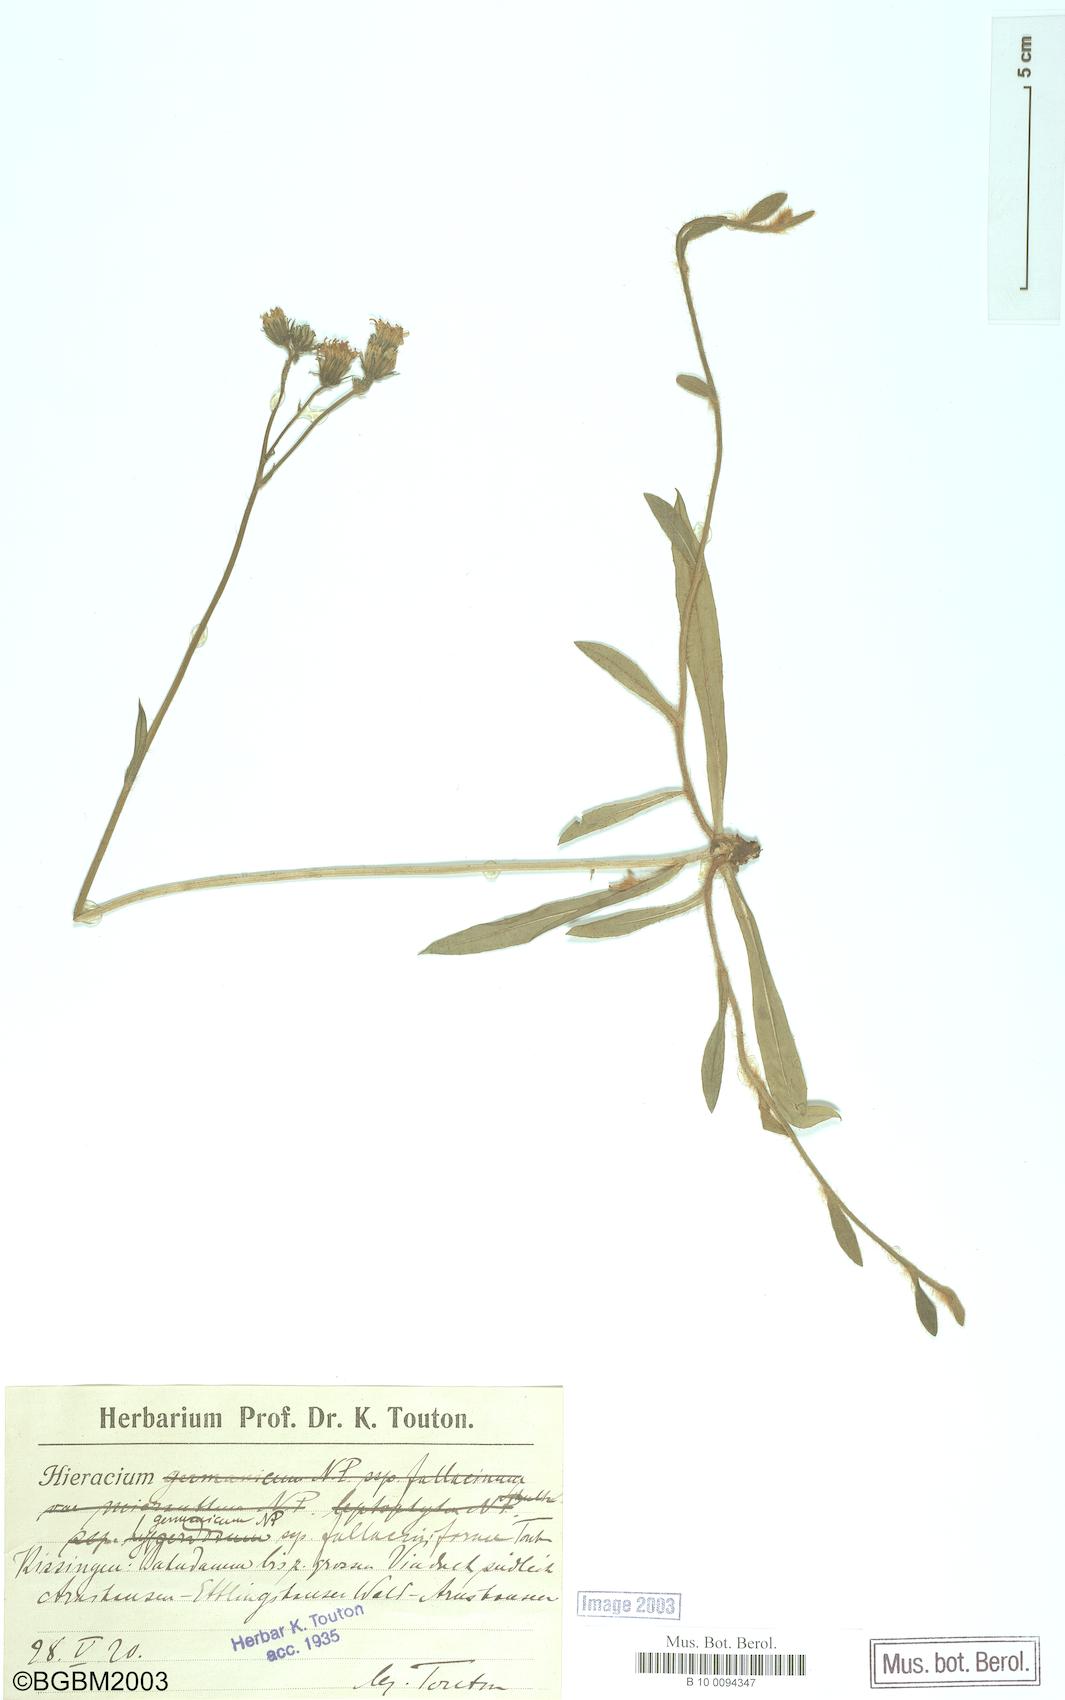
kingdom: Plantae
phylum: Tracheophyta
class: Magnoliopsida
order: Asterales
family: Asteraceae
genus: Pilosella
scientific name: Pilosella fallacina
